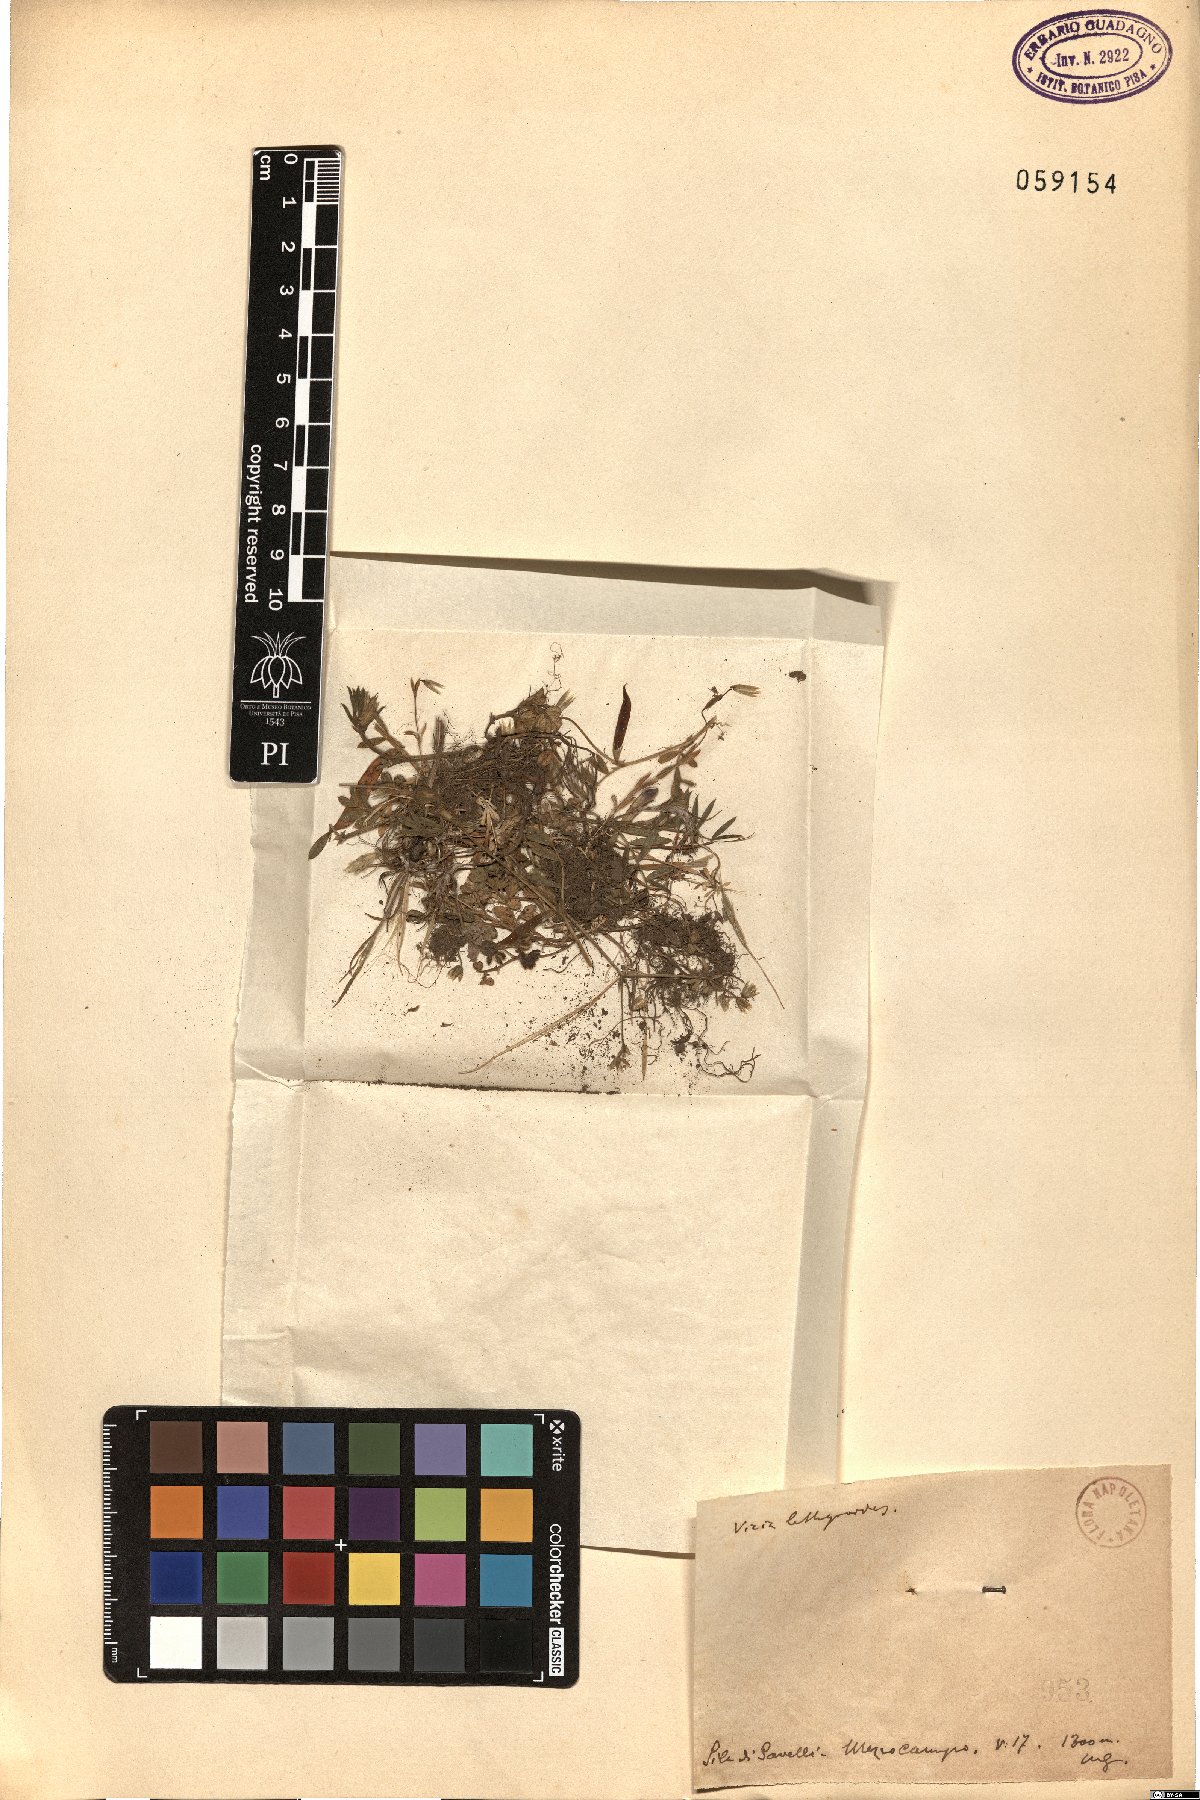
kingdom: Plantae
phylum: Tracheophyta
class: Magnoliopsida
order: Fabales
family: Fabaceae
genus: Vicia
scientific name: Vicia lathyroides
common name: Spring vetch
